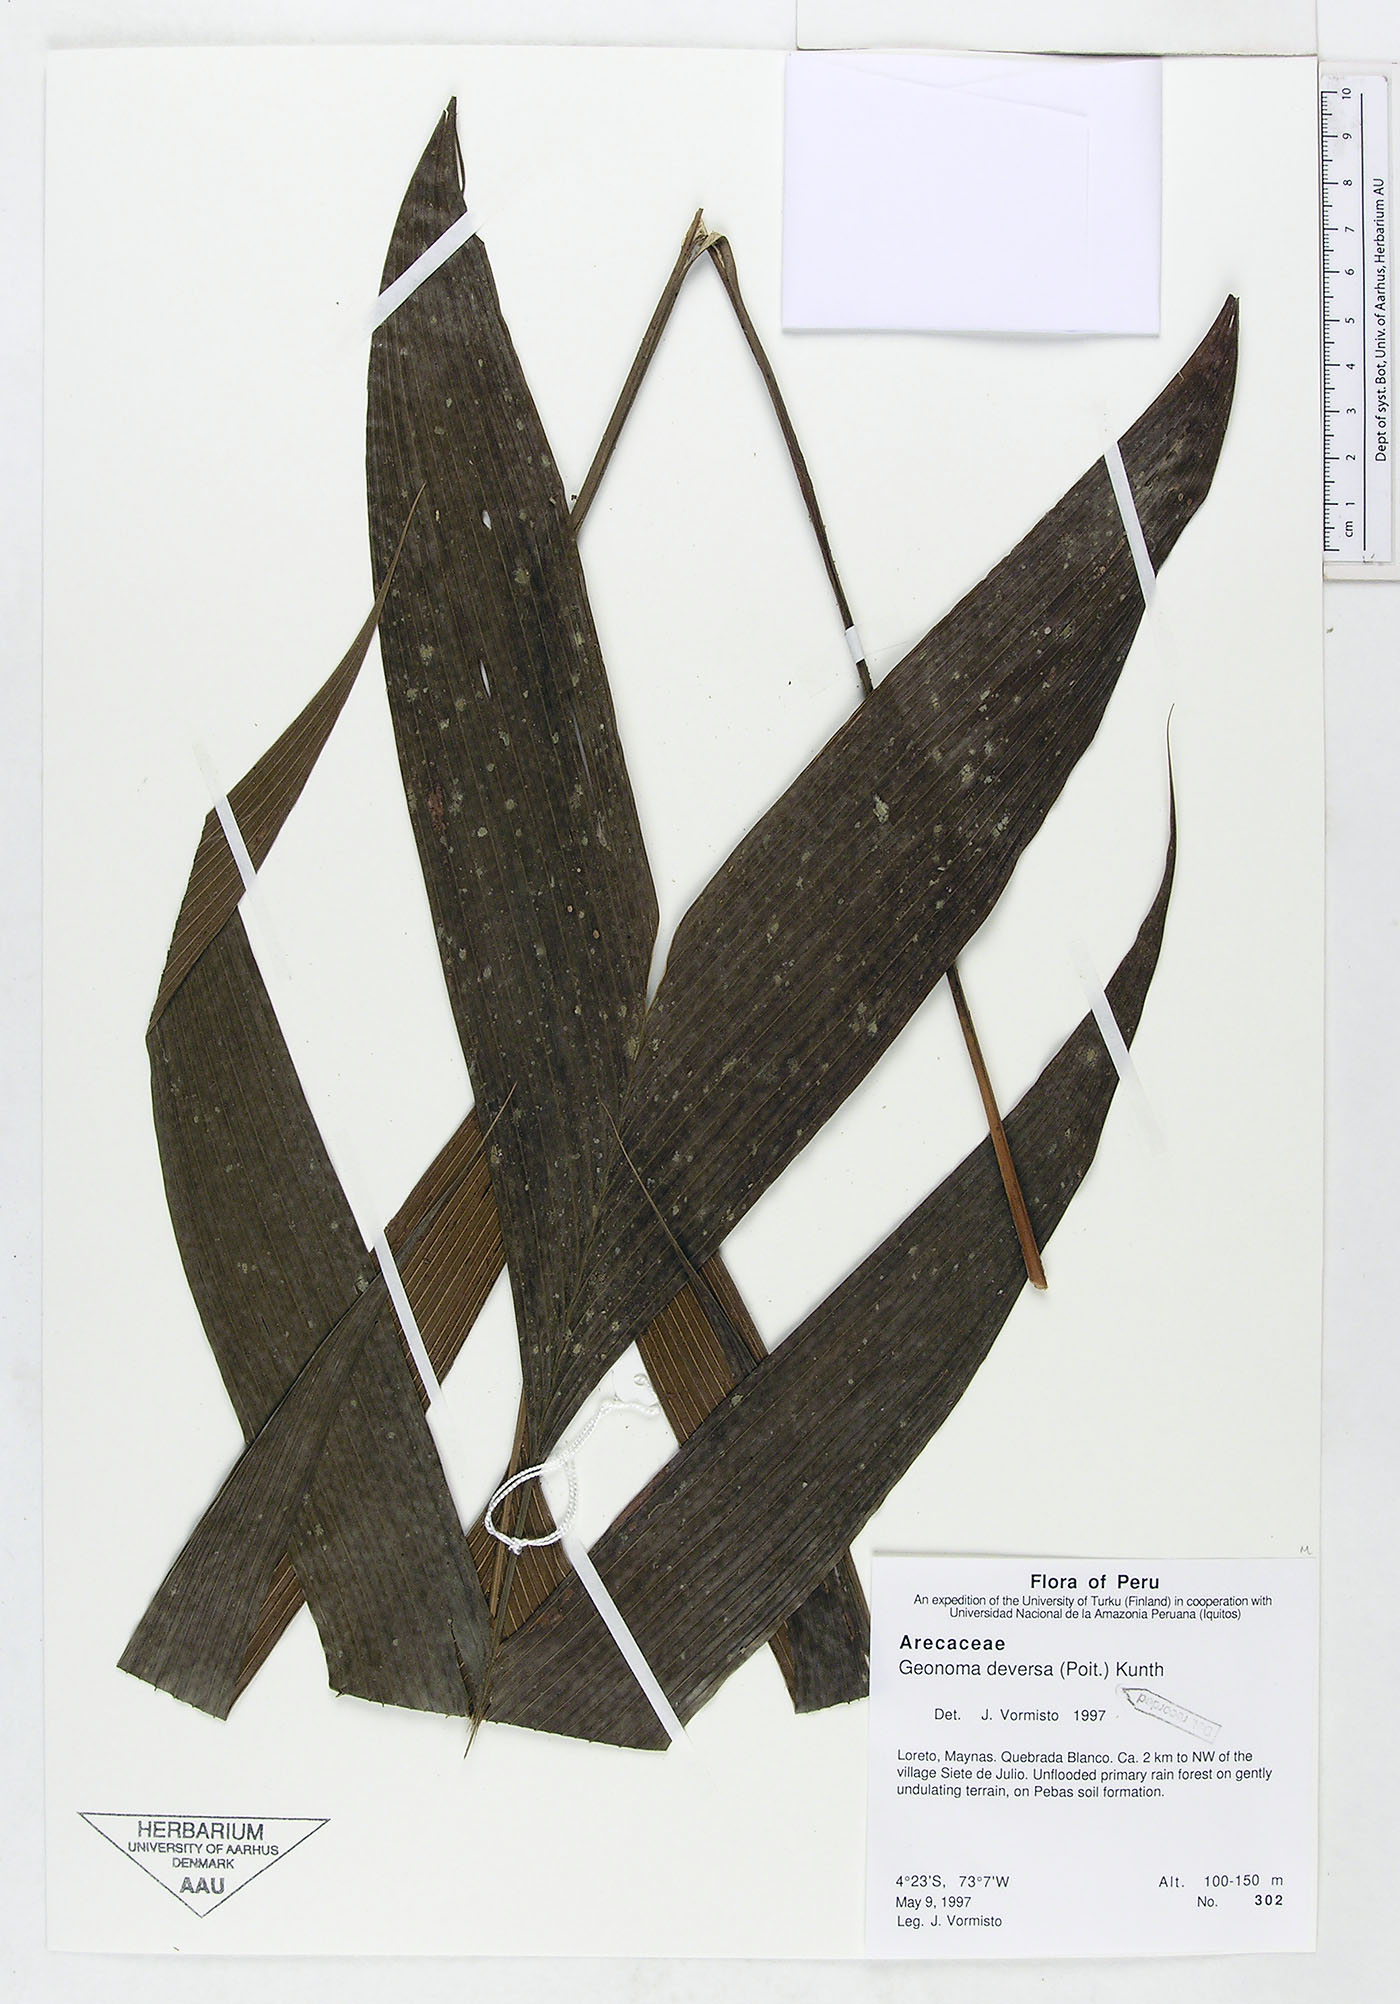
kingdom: Plantae
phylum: Tracheophyta
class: Liliopsida
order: Arecales
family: Arecaceae
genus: Geonoma
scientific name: Geonoma deversa
